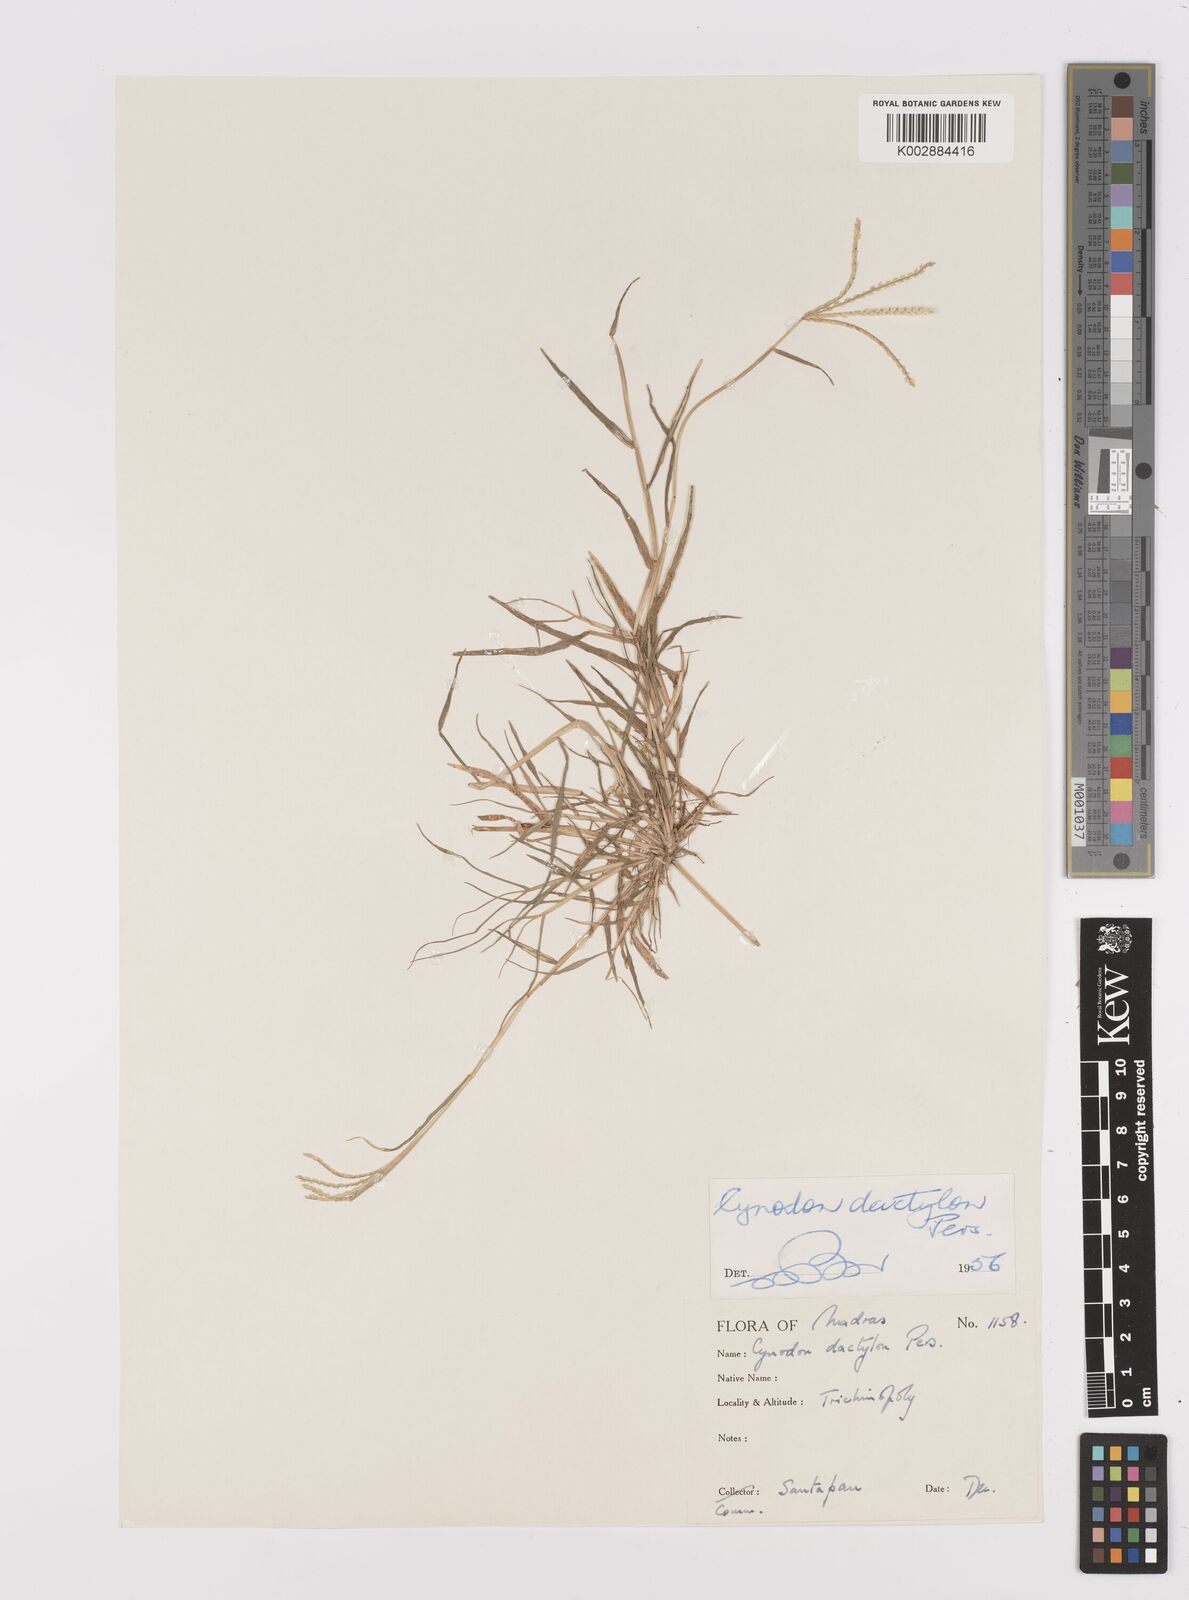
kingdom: Plantae
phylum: Tracheophyta
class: Liliopsida
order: Poales
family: Poaceae
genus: Cynodon
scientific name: Cynodon dactylon
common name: Bermuda grass
